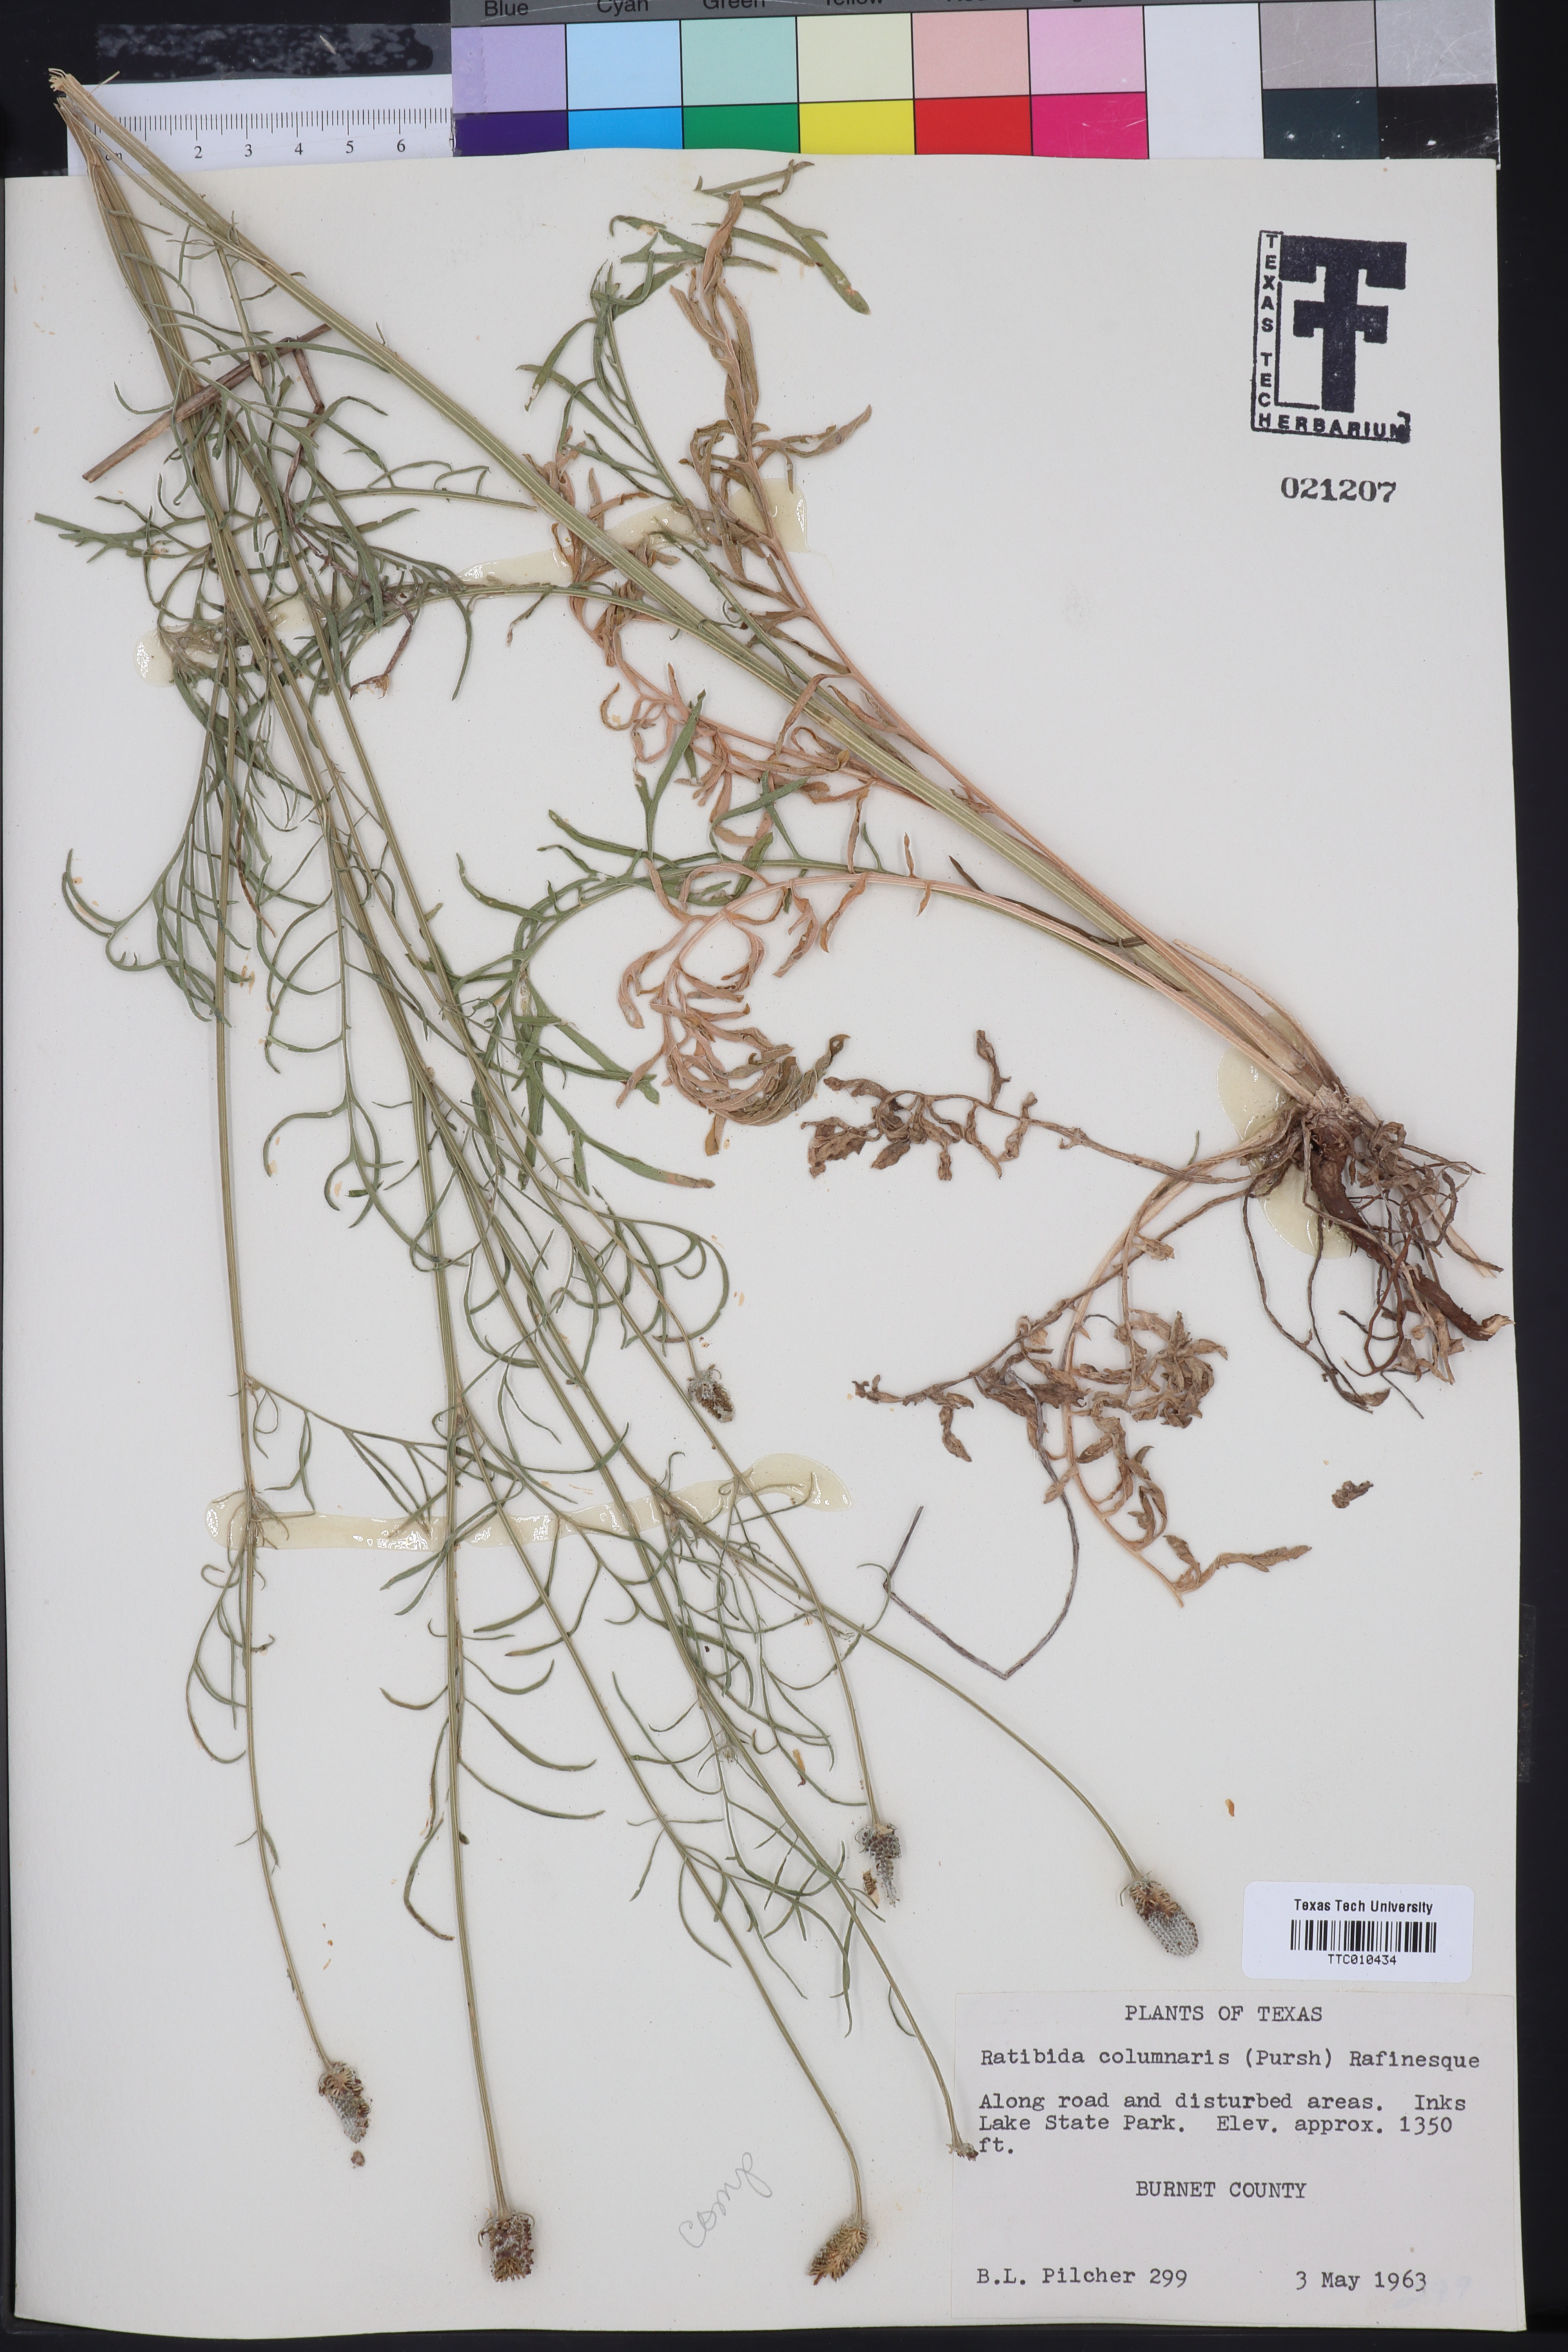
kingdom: Plantae
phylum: Tracheophyta
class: Magnoliopsida
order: Asterales
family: Asteraceae
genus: Ratibida
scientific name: Ratibida columnifera
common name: Prairie coneflower
